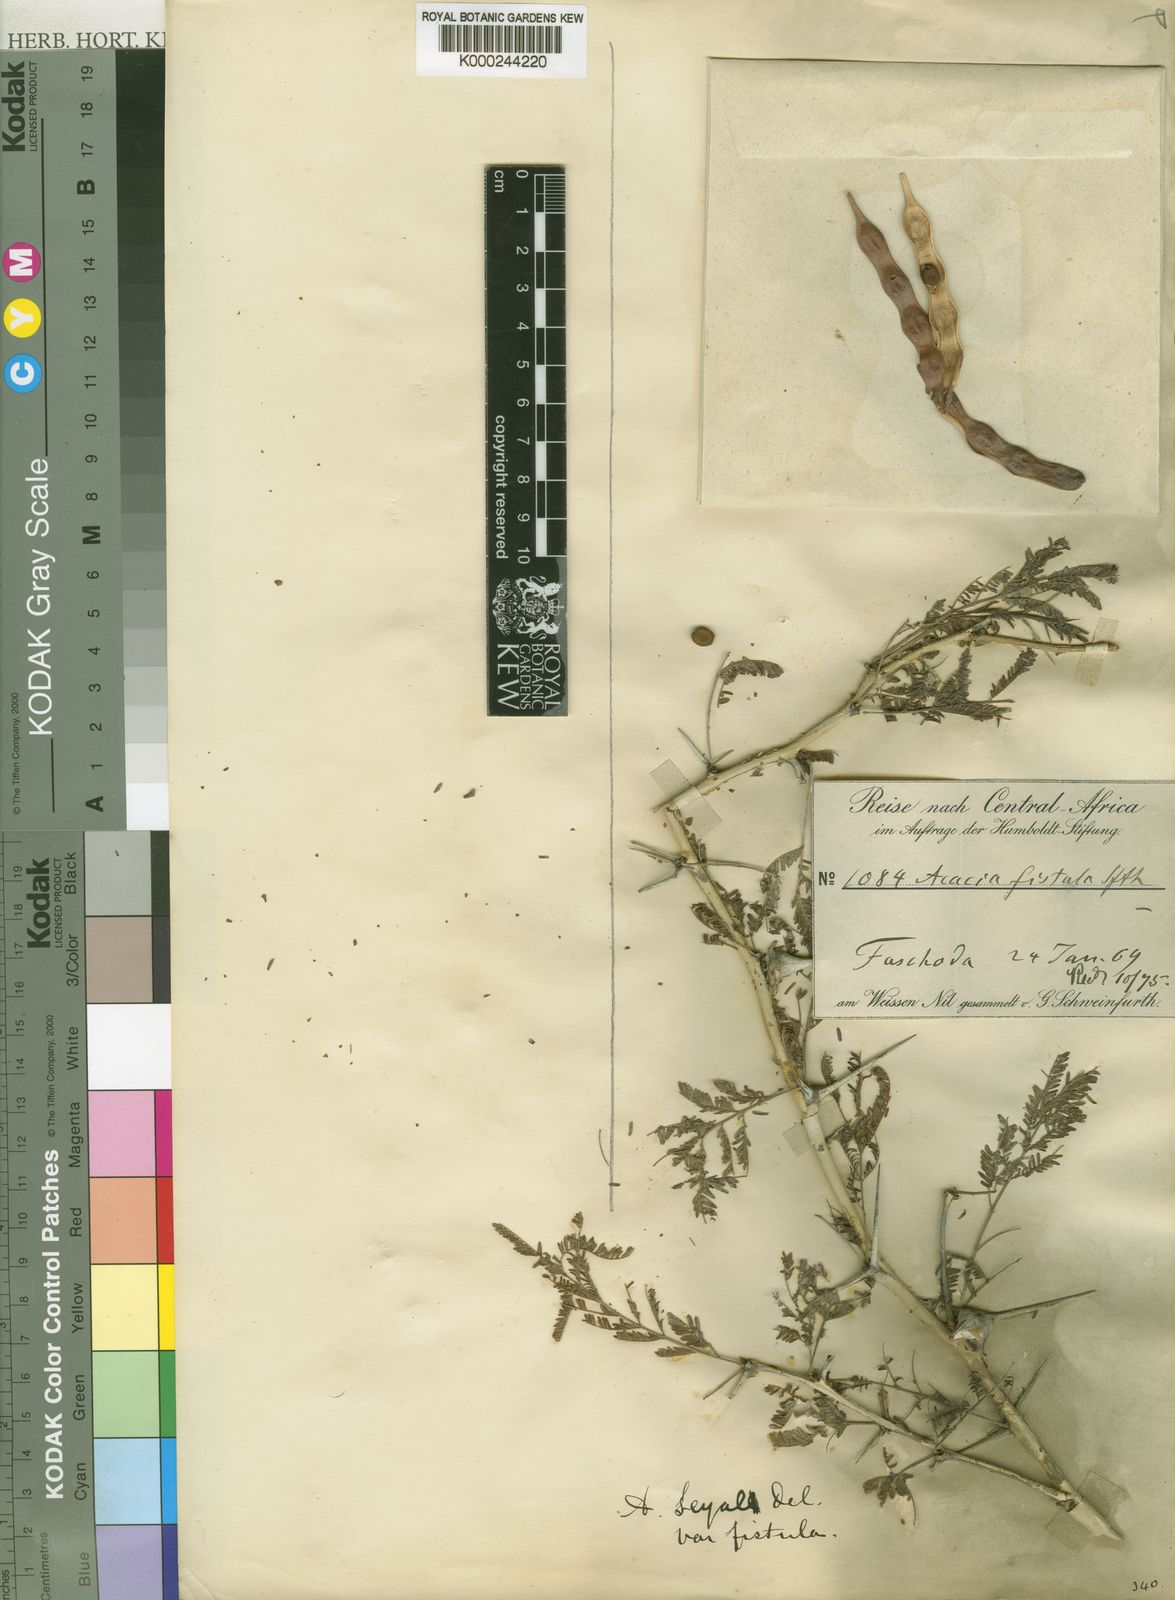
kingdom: Plantae
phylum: Tracheophyta
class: Magnoliopsida
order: Fabales
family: Fabaceae
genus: Vachellia
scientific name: Vachellia seyal
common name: Thirtythorn
